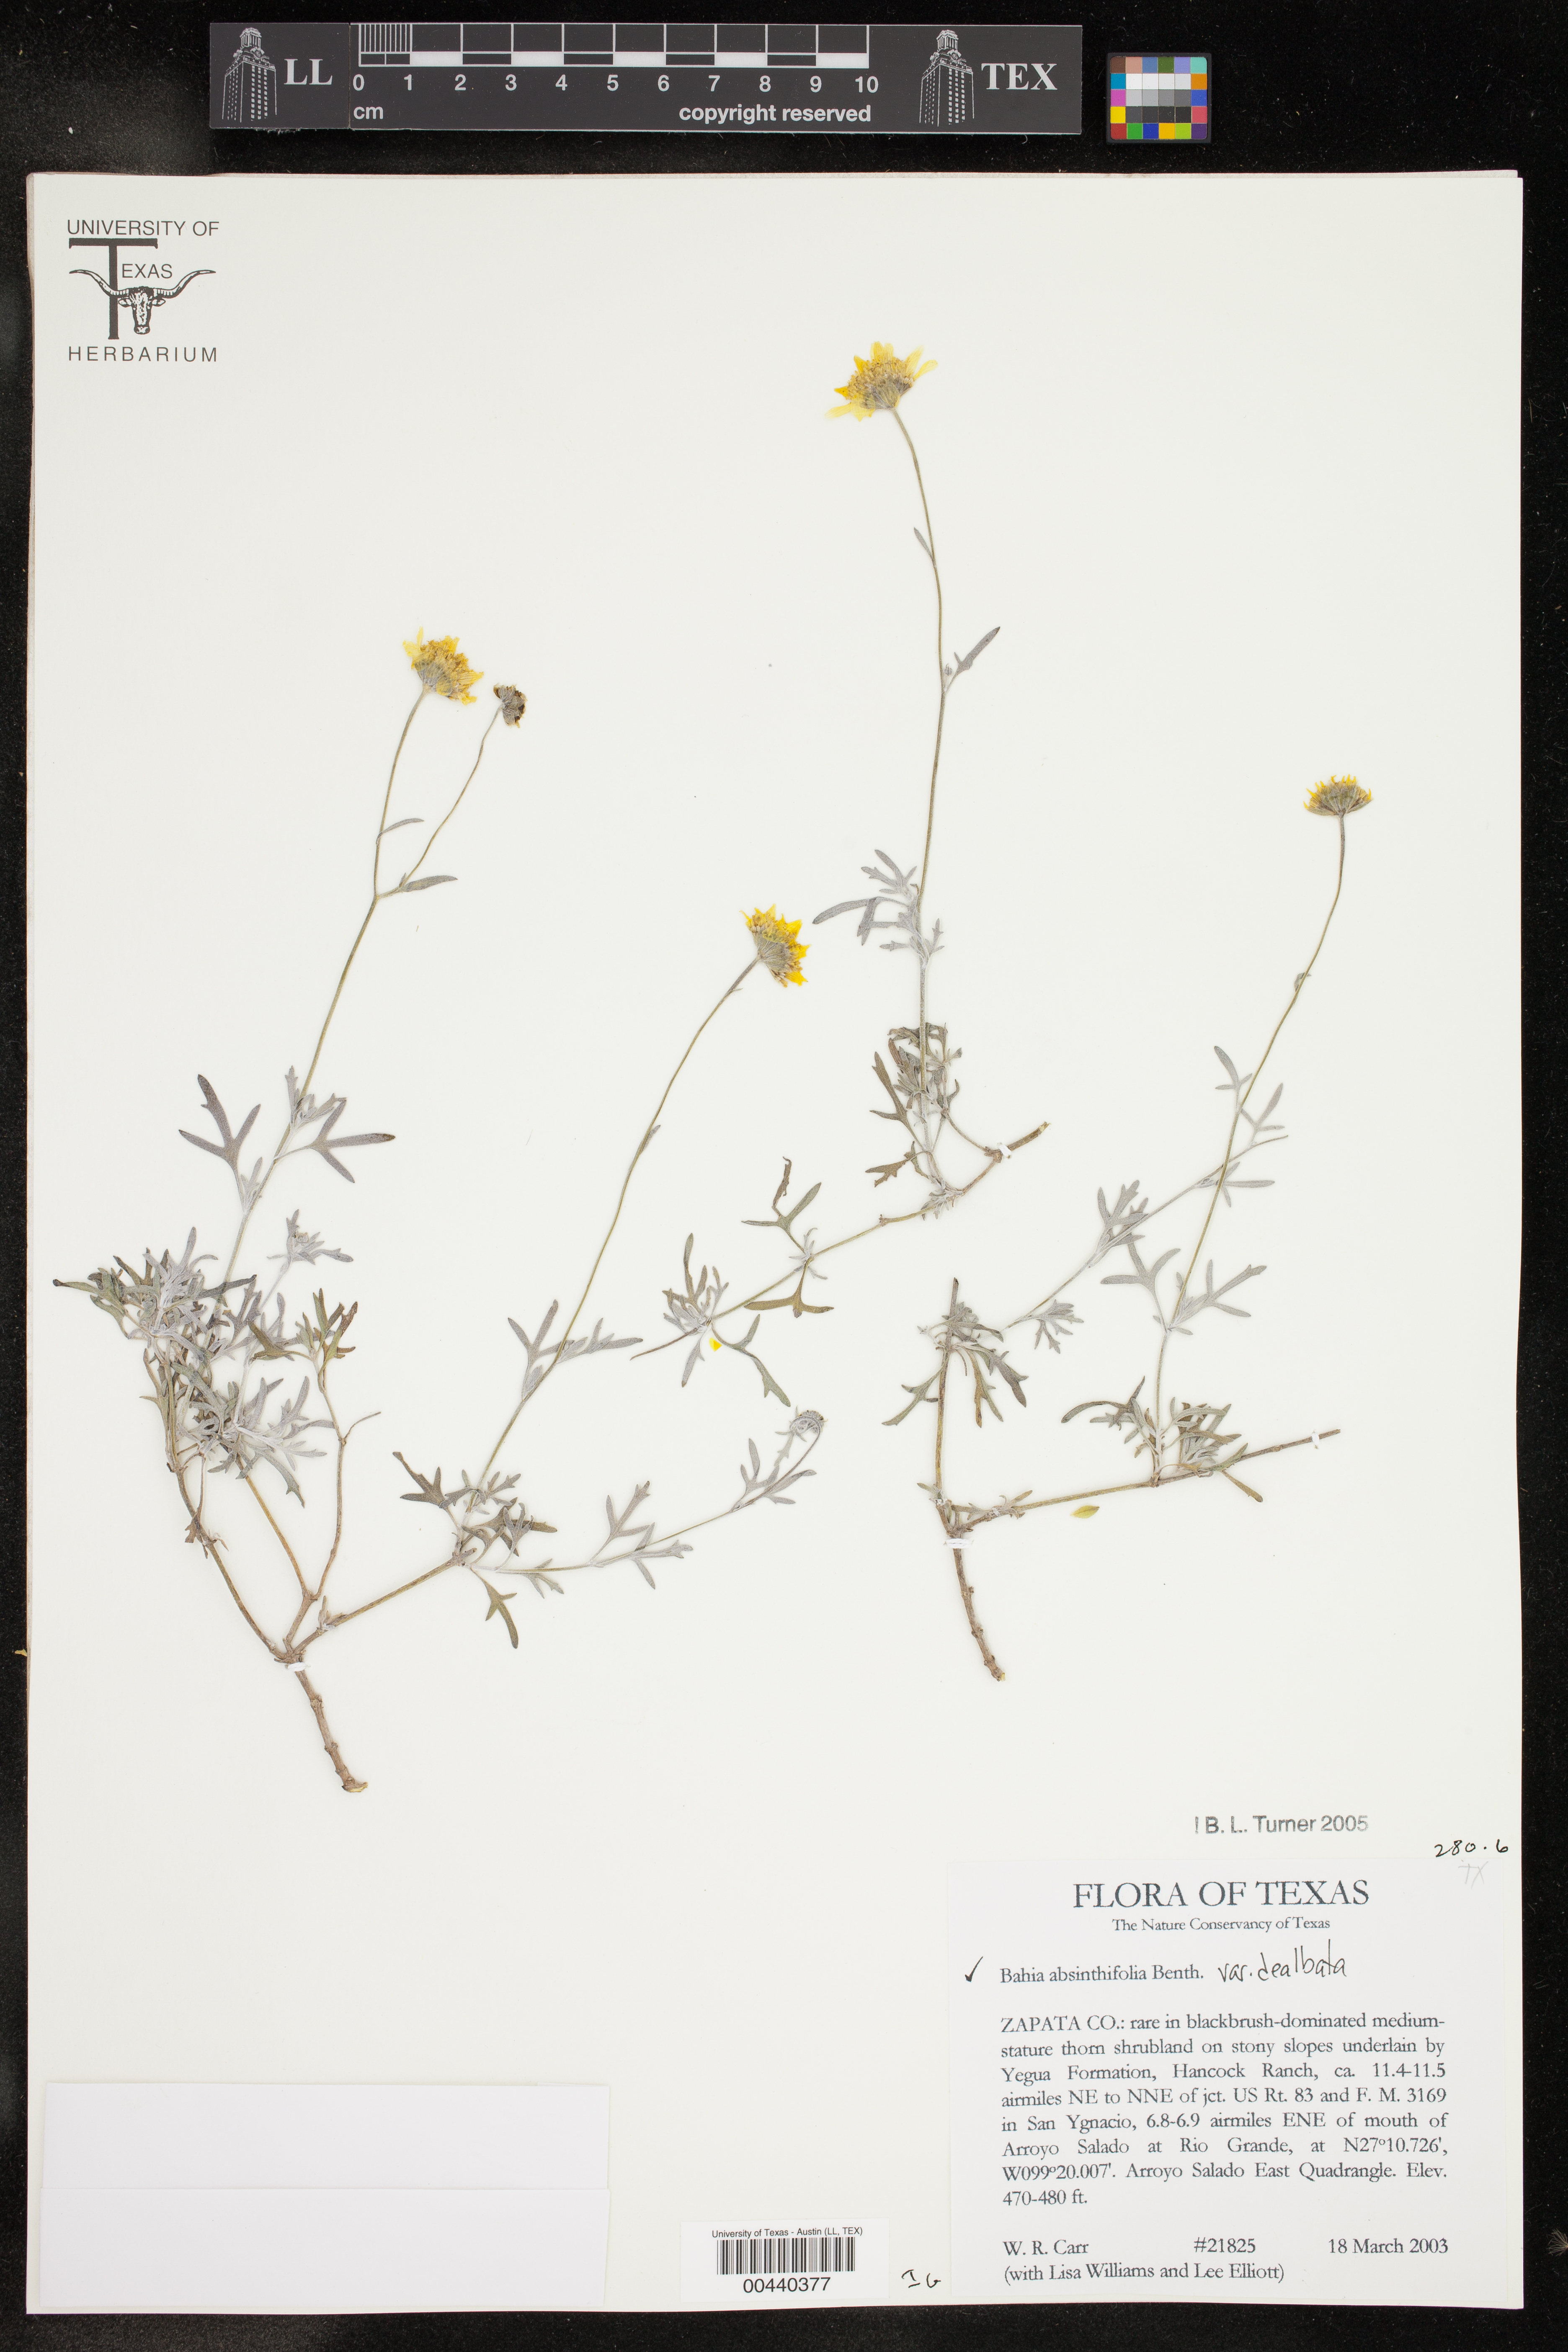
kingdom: Plantae
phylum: Tracheophyta
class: Magnoliopsida
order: Asterales
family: Asteraceae
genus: Picradeniopsis
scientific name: Picradeniopsis absinthifolia
